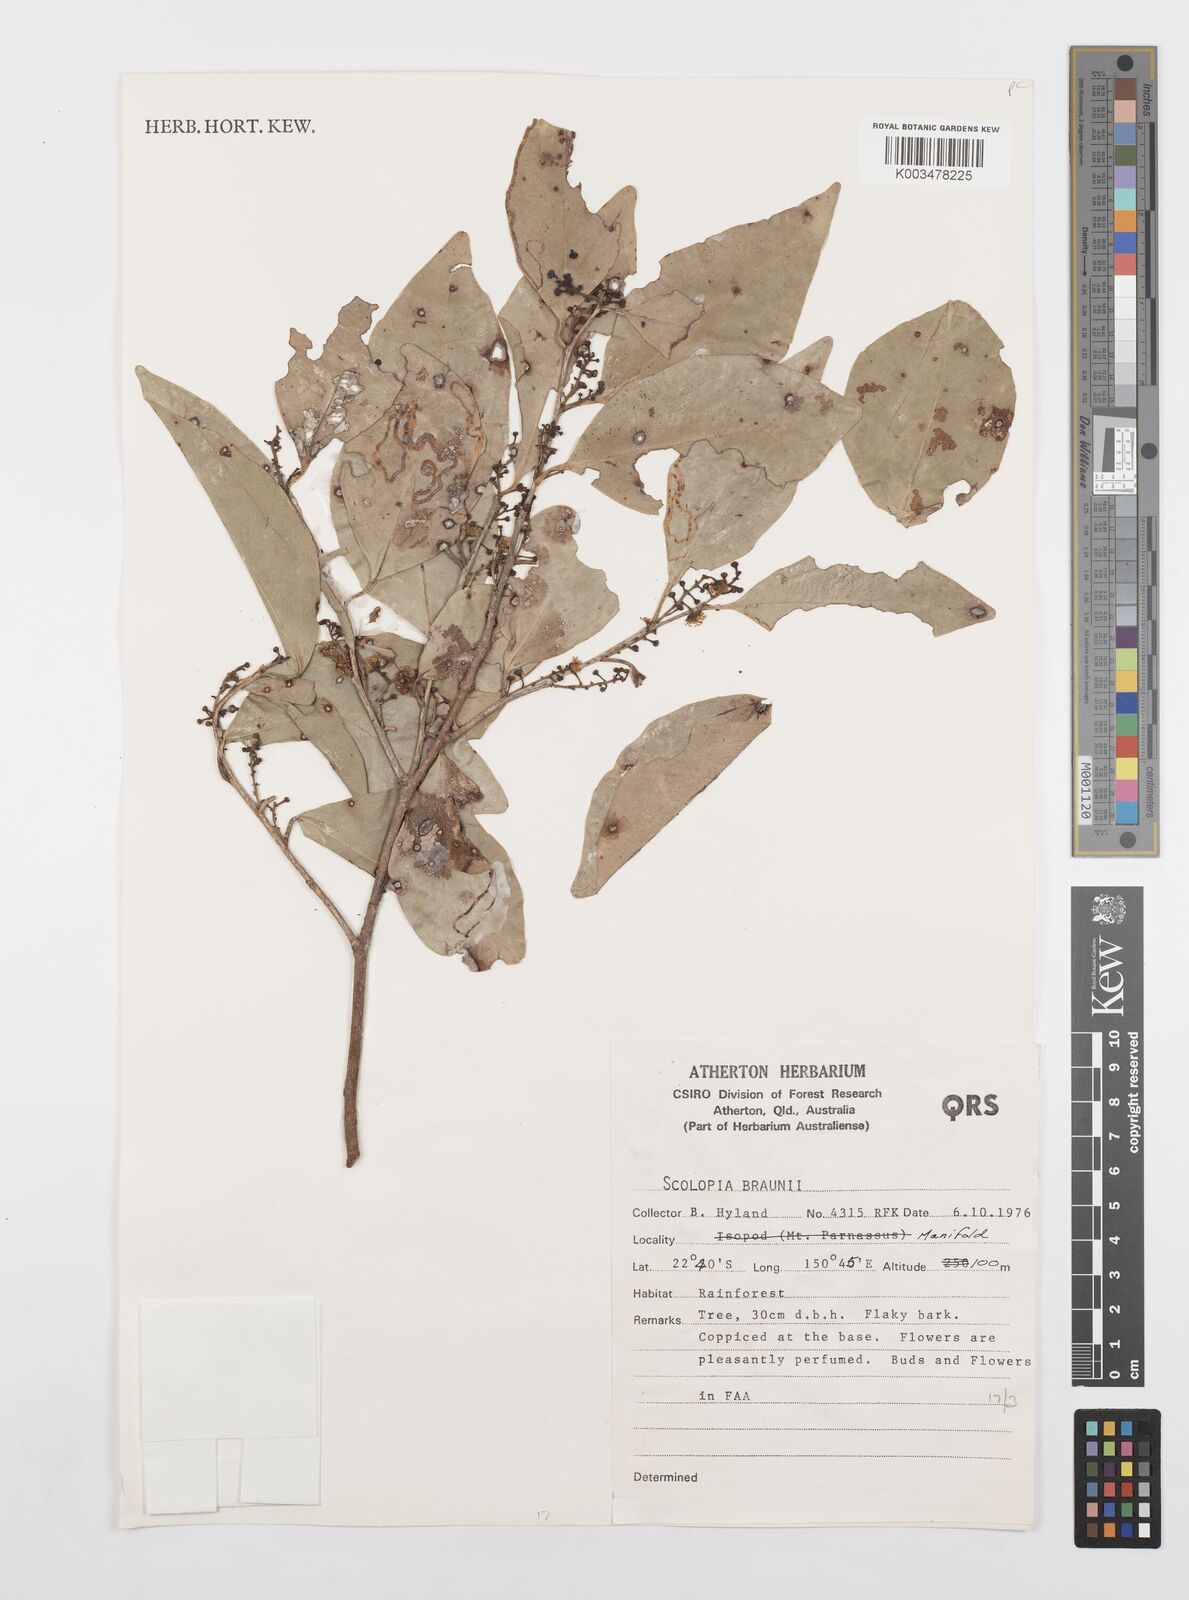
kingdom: Plantae
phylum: Tracheophyta
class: Magnoliopsida
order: Malpighiales
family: Salicaceae
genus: Scolopia
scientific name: Scolopia braunii
